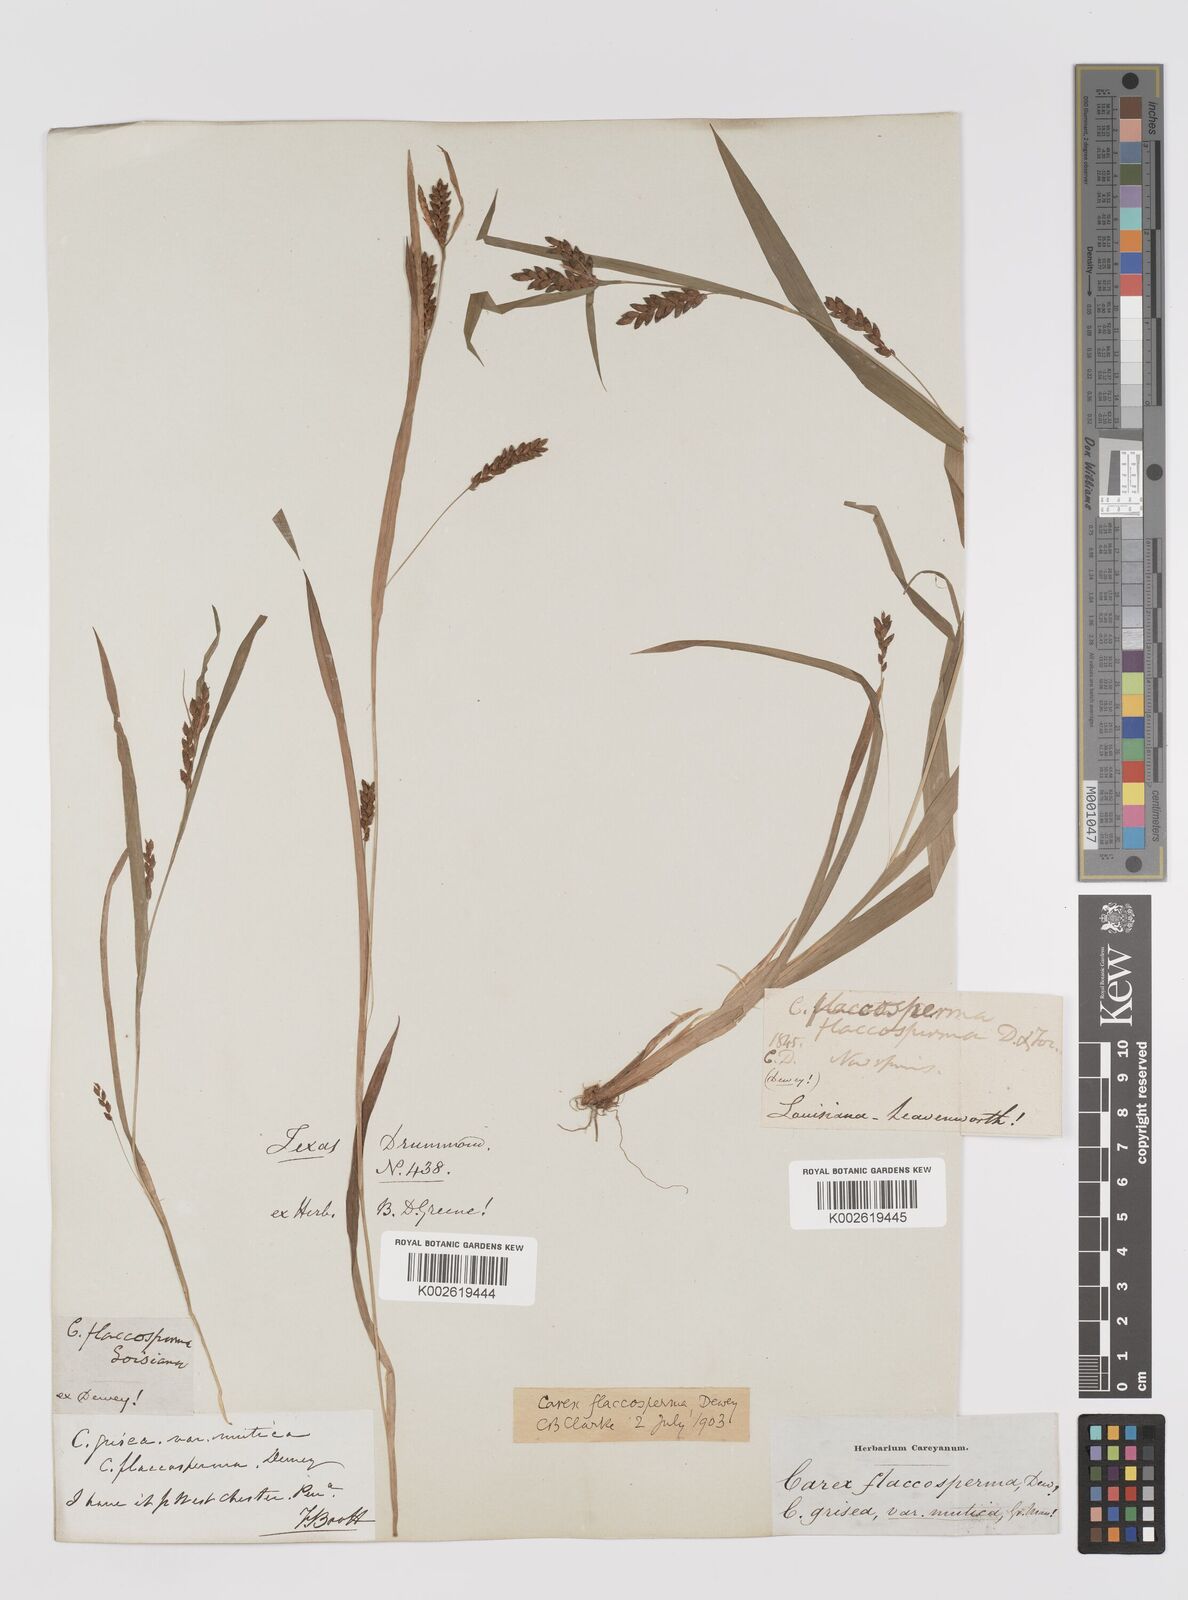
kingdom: Plantae
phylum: Tracheophyta
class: Liliopsida
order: Poales
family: Cyperaceae
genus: Carex
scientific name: Carex flaccosperma
